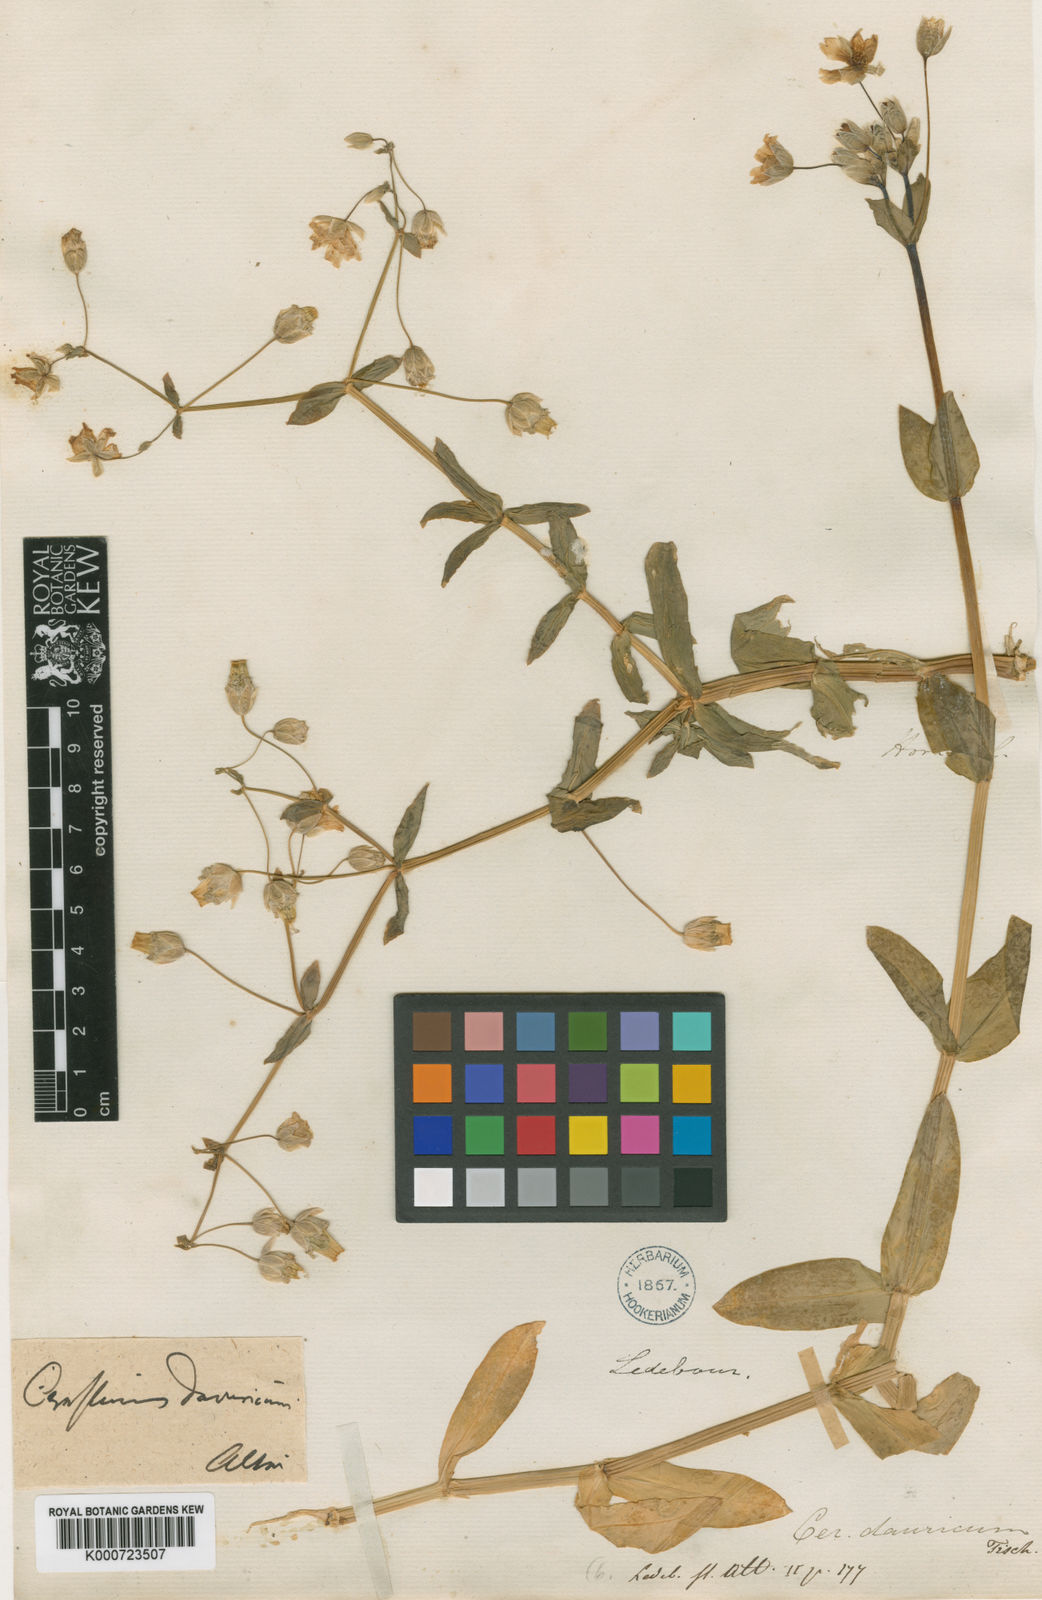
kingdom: Plantae
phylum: Tracheophyta
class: Magnoliopsida
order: Caryophyllales
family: Caryophyllaceae
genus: Dichodon
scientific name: Dichodon davuricum
